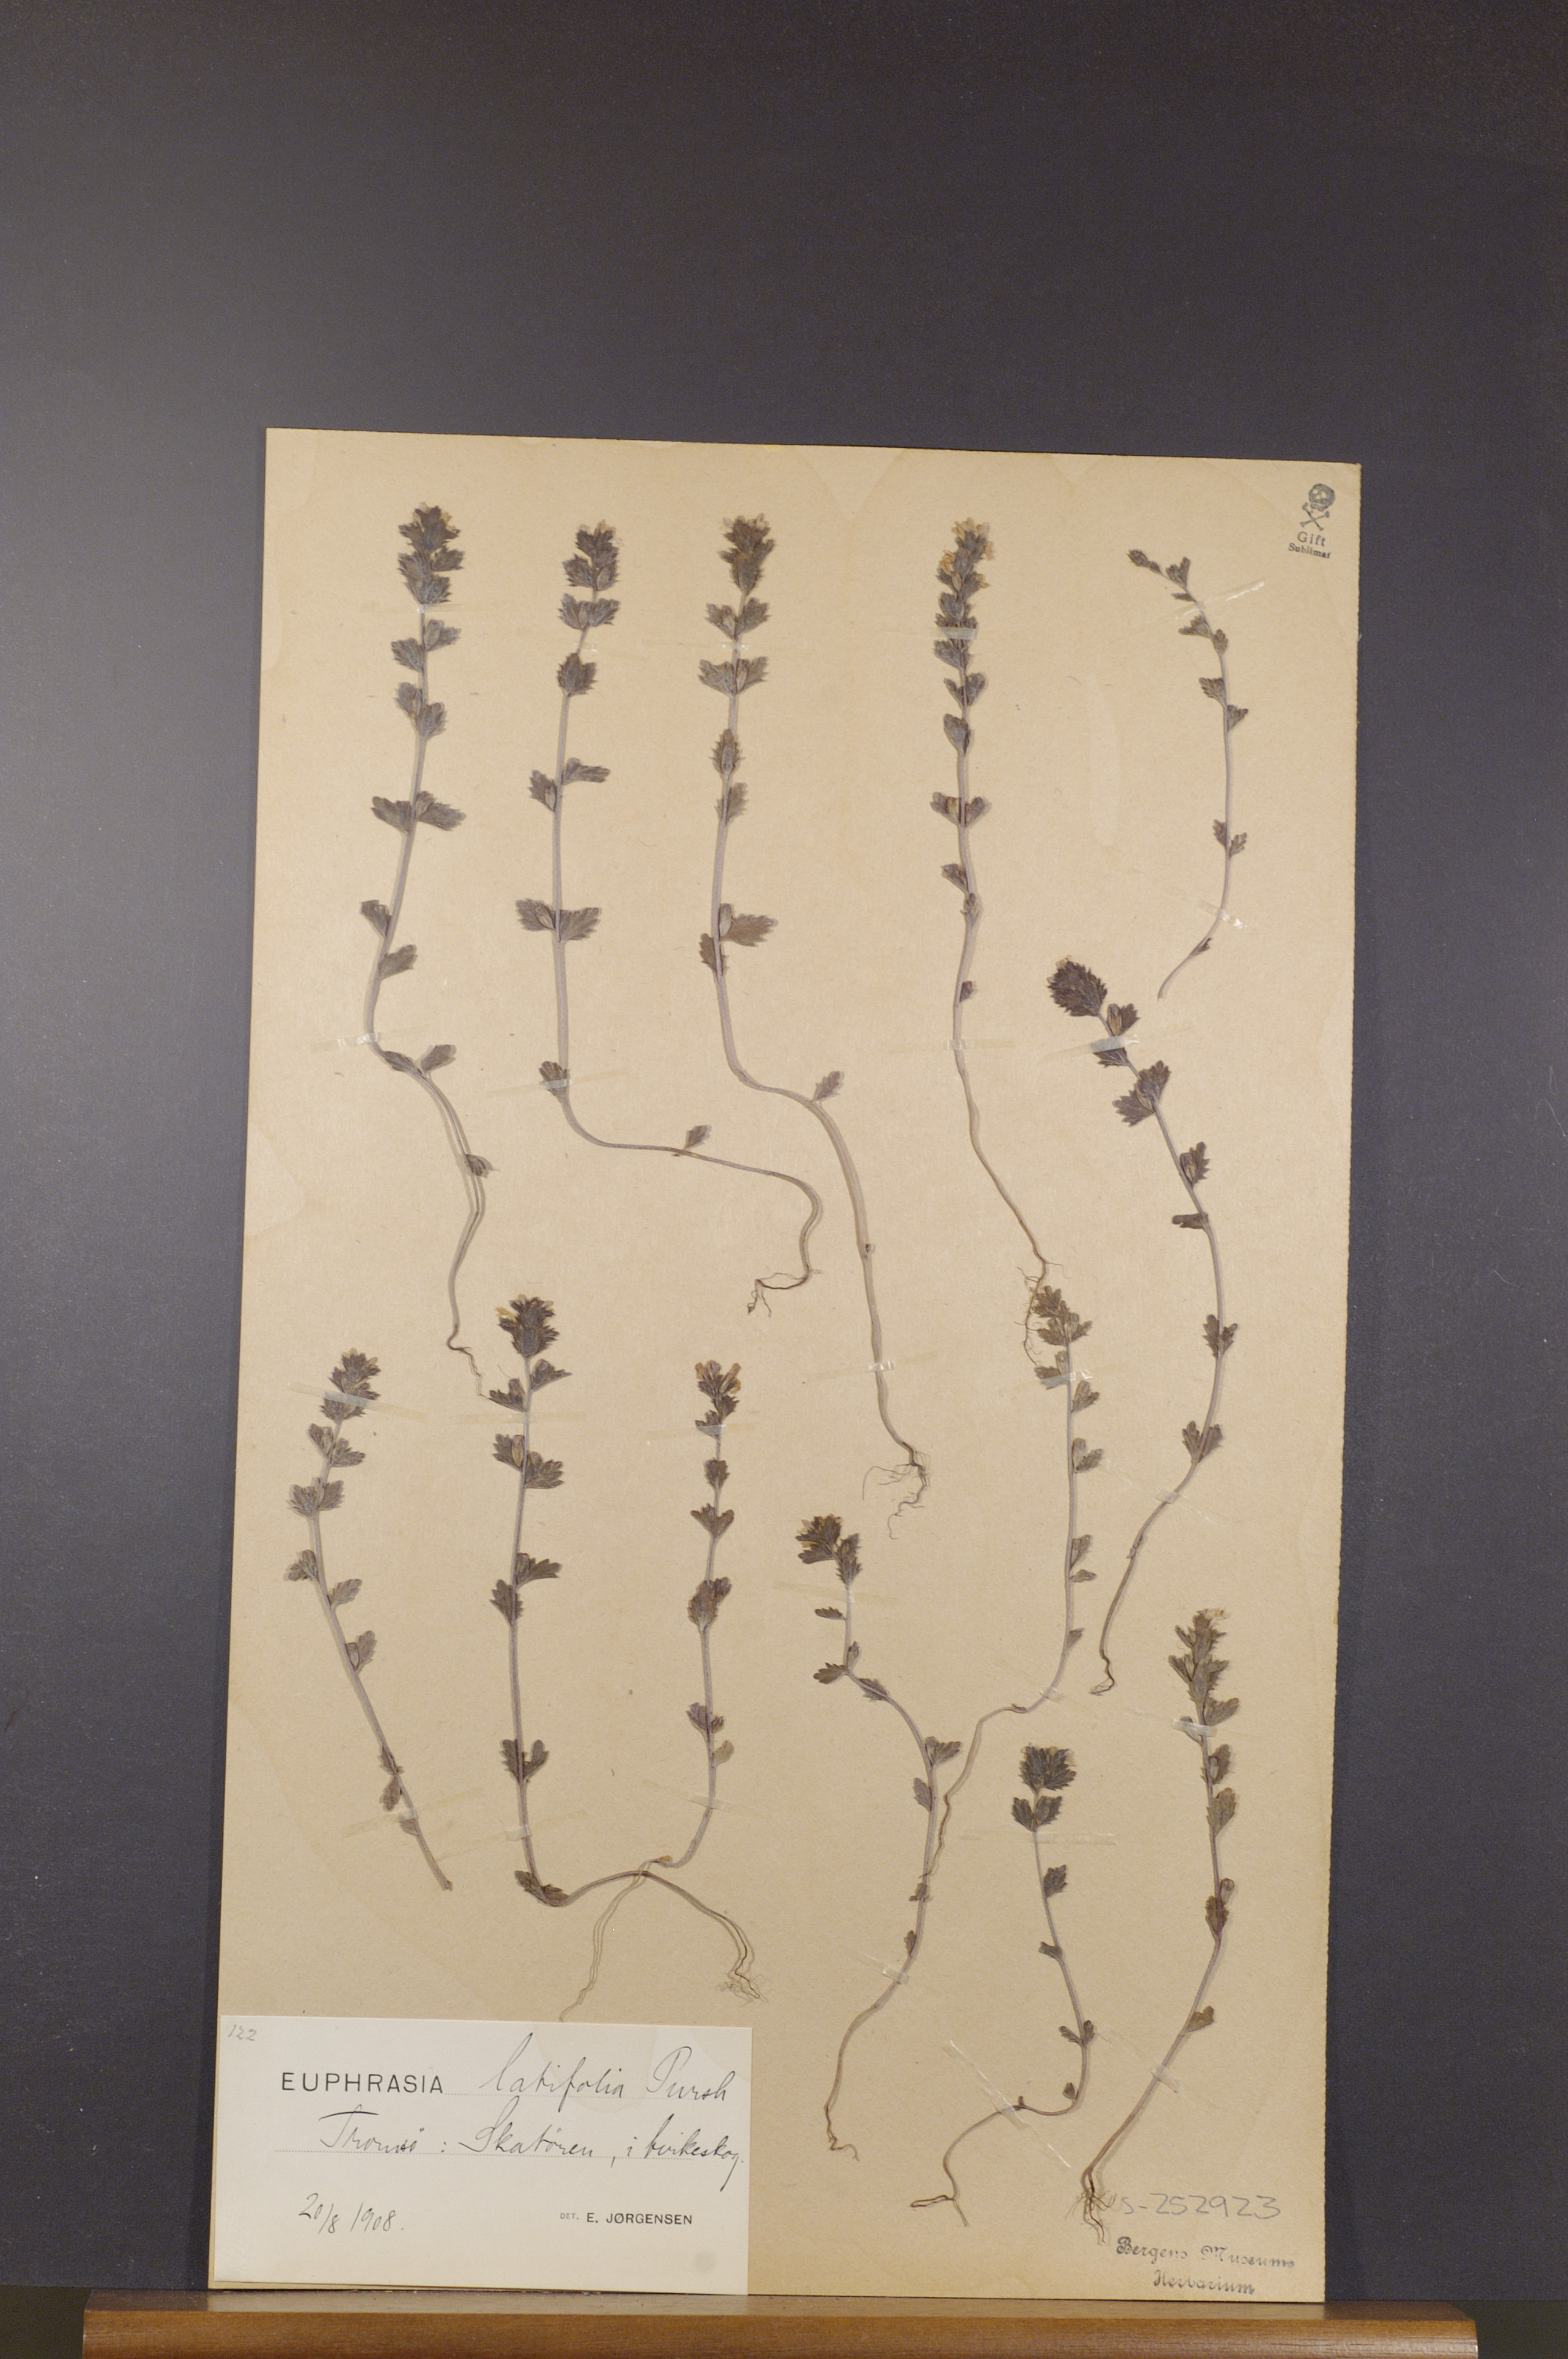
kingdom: Plantae
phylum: Tracheophyta
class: Magnoliopsida
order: Lamiales
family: Orobanchaceae
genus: Euphrasia
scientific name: Euphrasia wettsteinii
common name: Wettstein's eyebright
